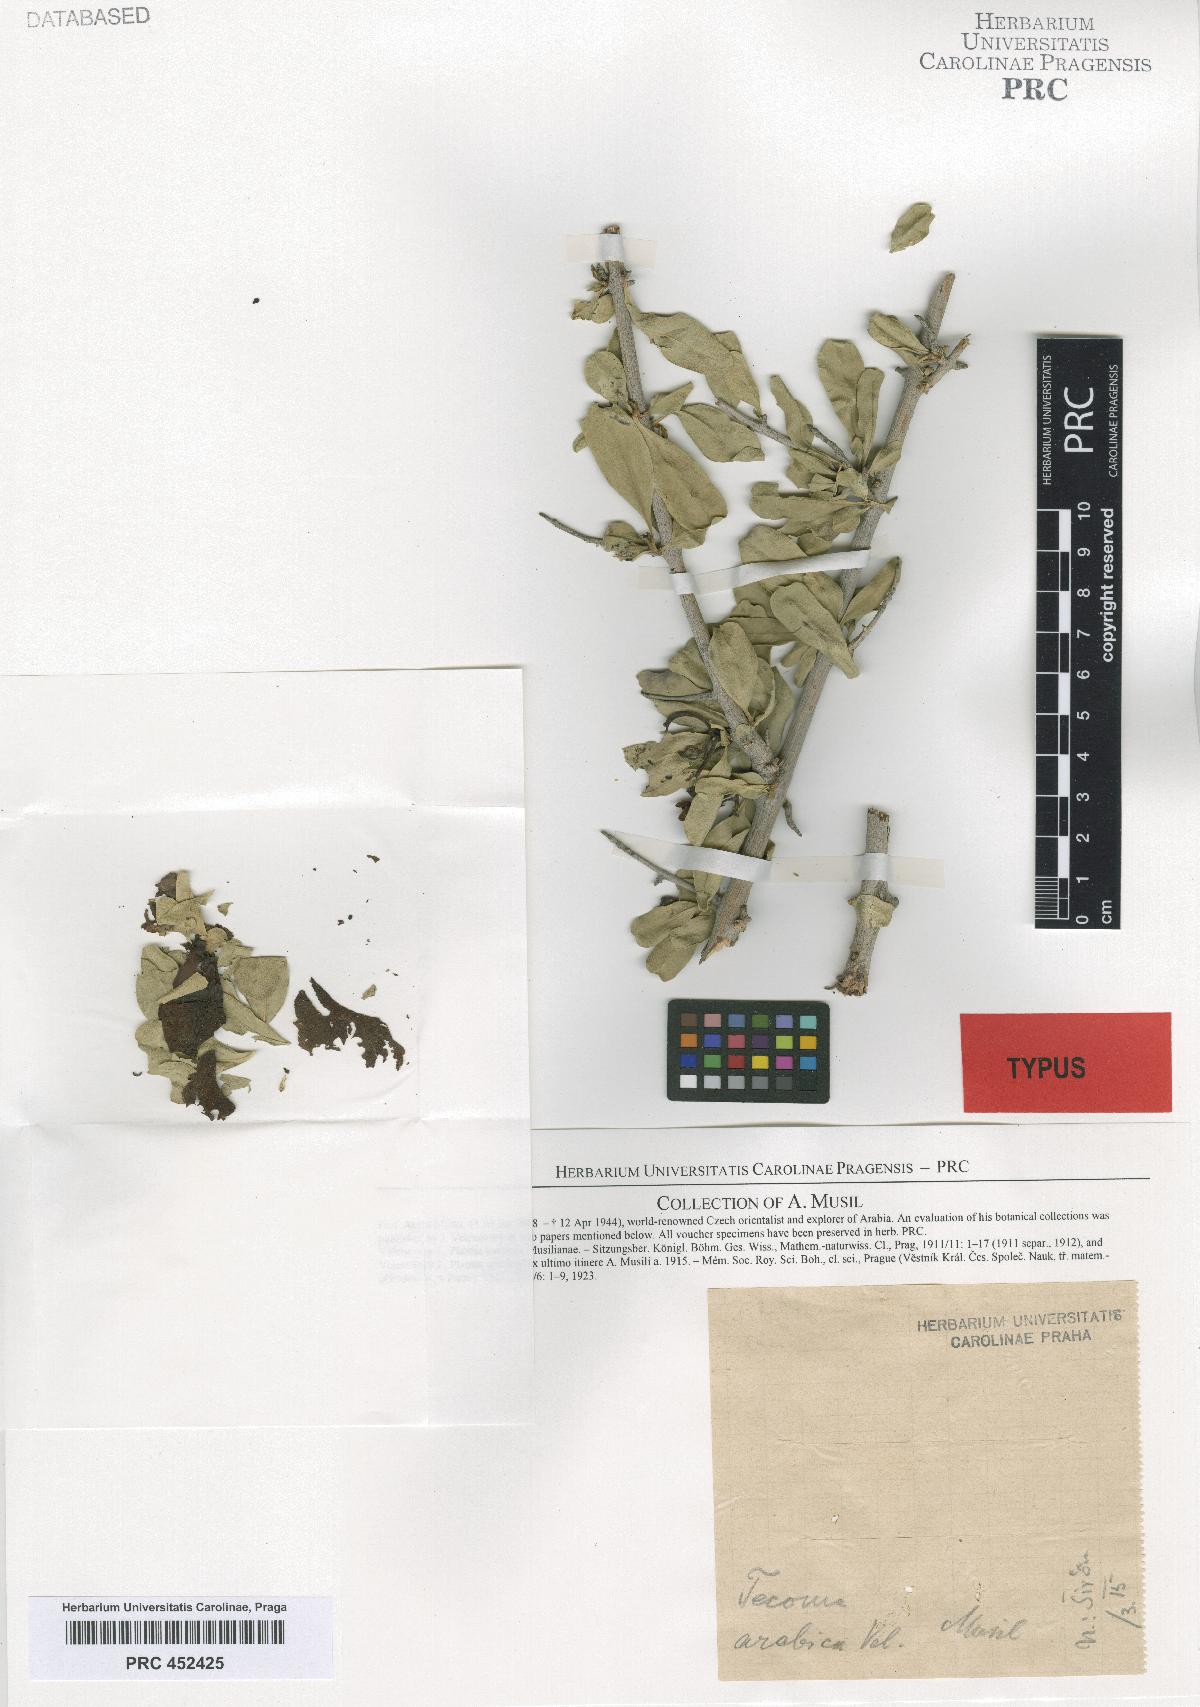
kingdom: Plantae
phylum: Tracheophyta
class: Magnoliopsida
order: Lamiales
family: Bignoniaceae
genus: Tecoma
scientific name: Tecoma arabica
